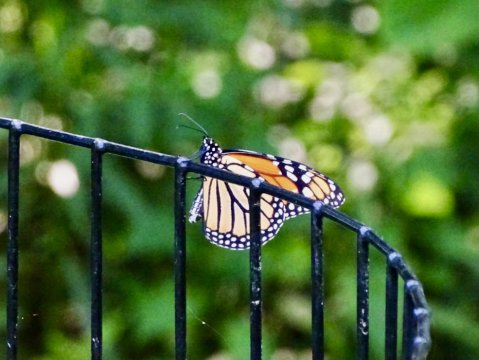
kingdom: Animalia
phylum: Arthropoda
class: Insecta
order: Lepidoptera
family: Nymphalidae
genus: Danaus
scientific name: Danaus plexippus
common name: Monarch
